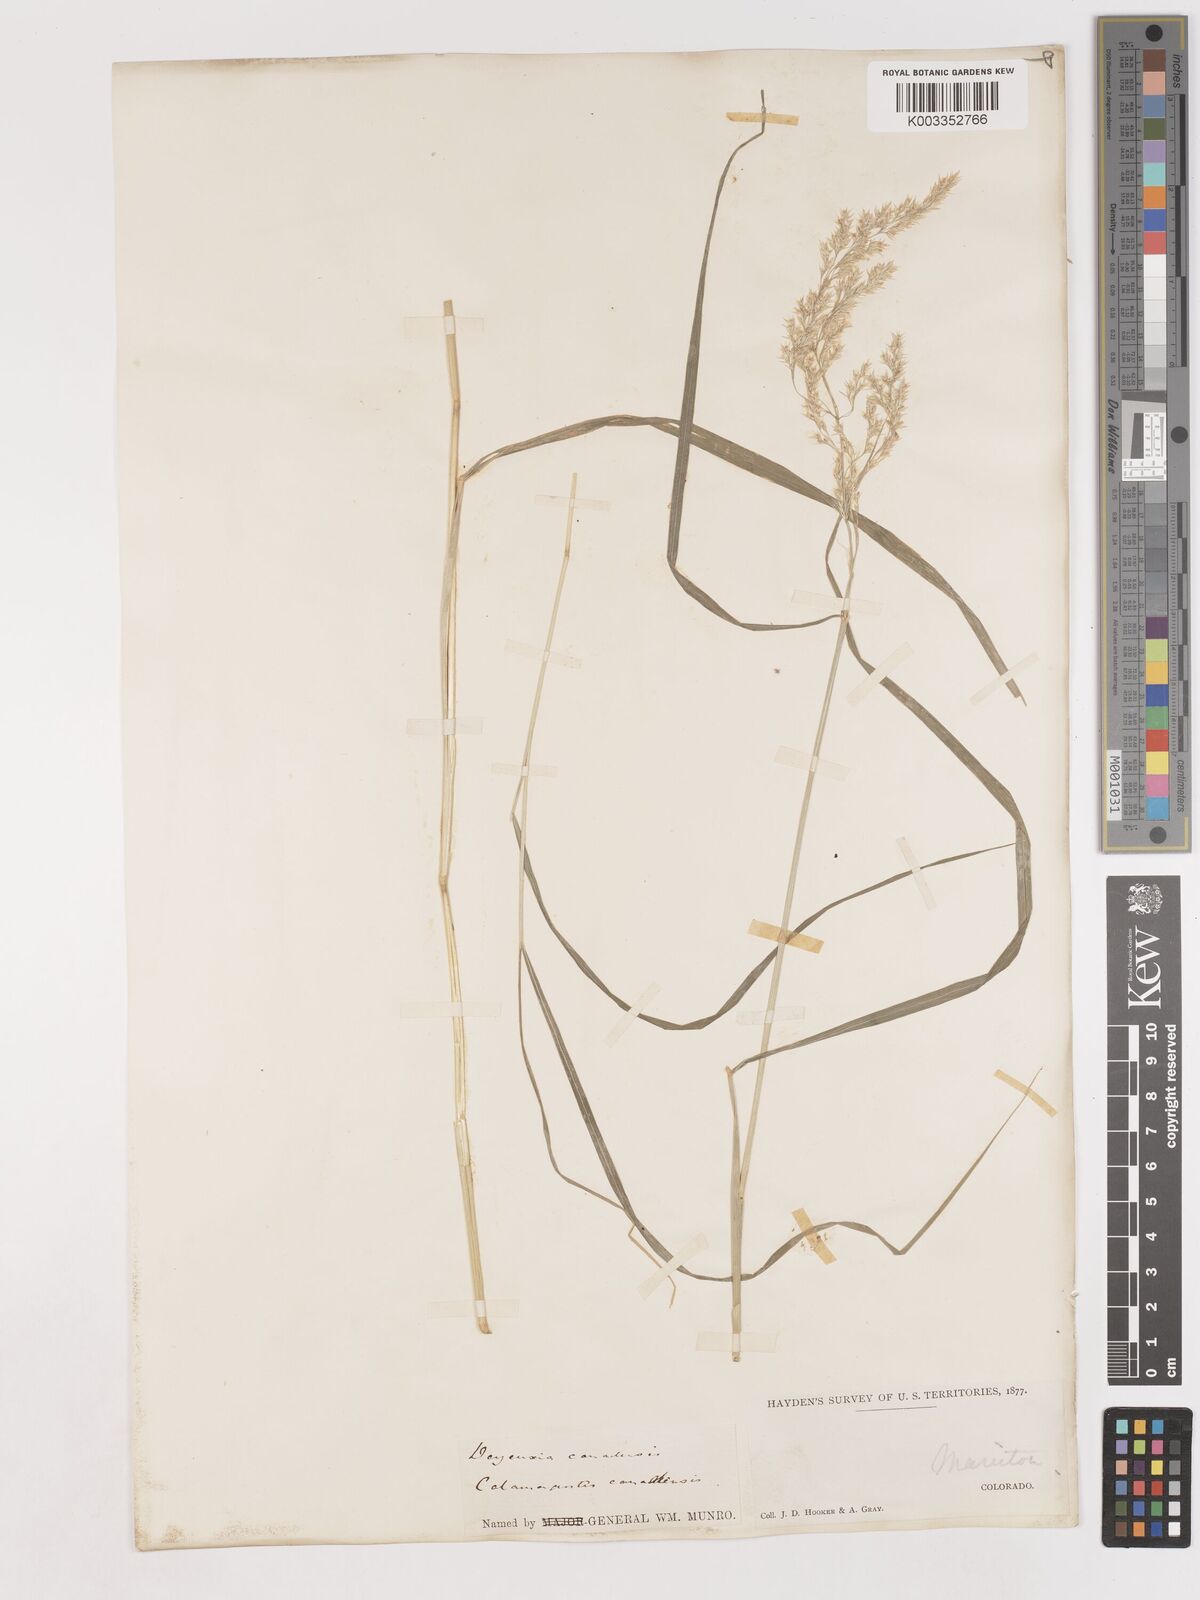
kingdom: Plantae
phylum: Tracheophyta
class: Liliopsida
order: Poales
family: Poaceae
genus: Calamagrostis
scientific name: Calamagrostis canadensis
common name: Canada bluejoint
